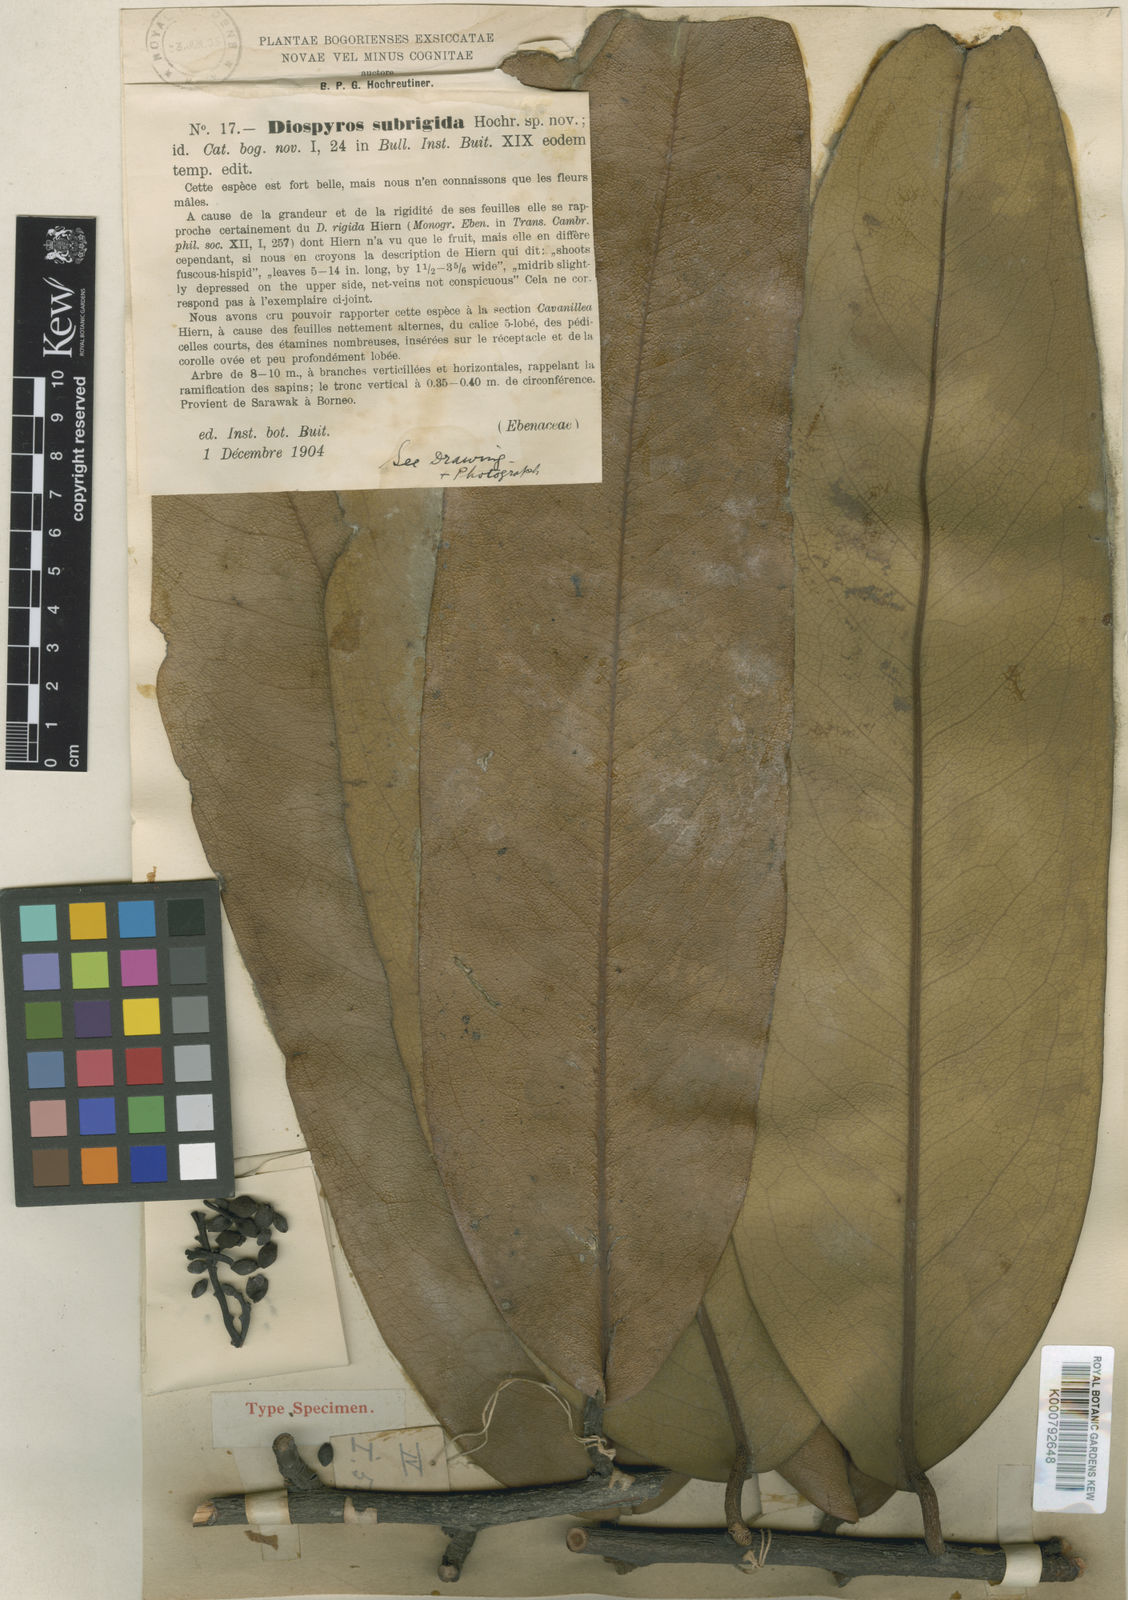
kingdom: Plantae
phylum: Tracheophyta
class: Magnoliopsida
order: Ericales
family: Ebenaceae
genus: Diospyros
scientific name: Diospyros rigida
